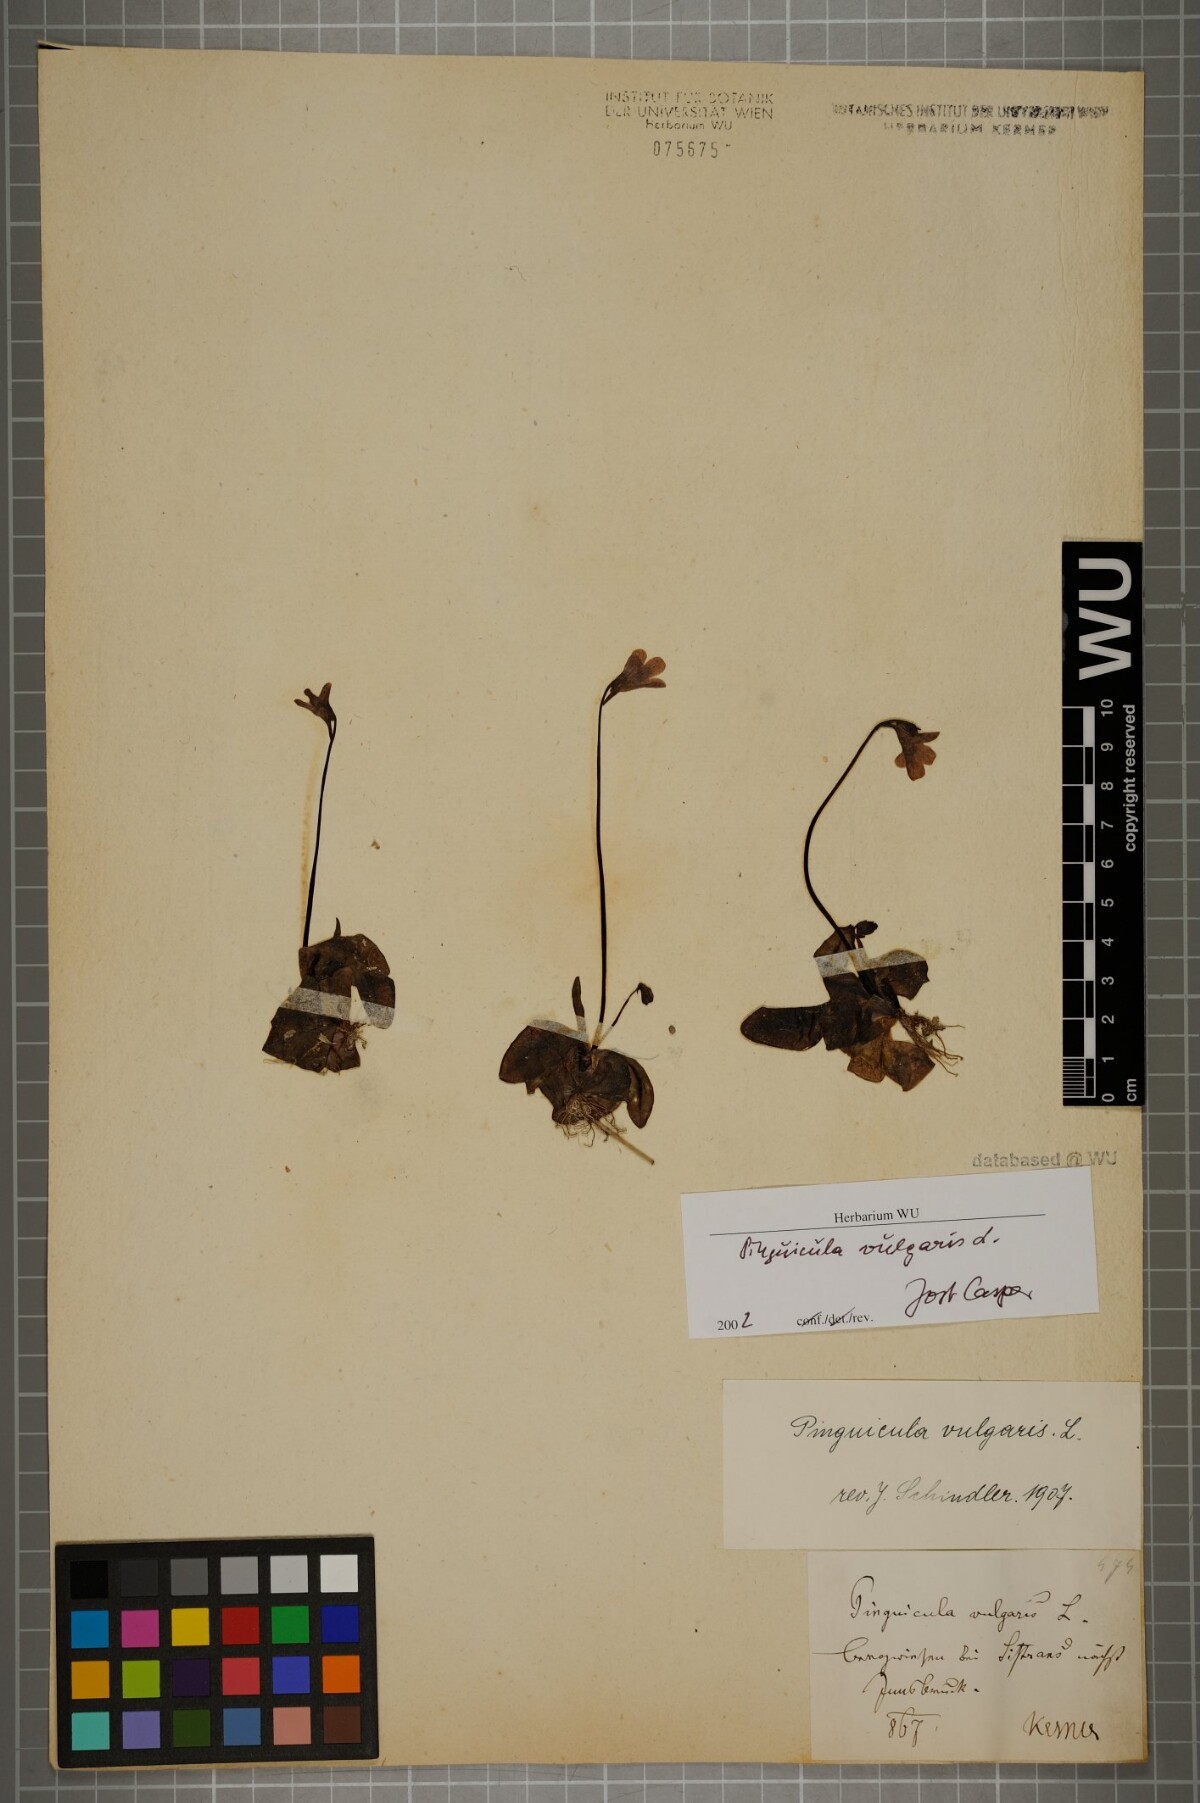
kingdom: Plantae
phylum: Tracheophyta
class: Magnoliopsida
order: Lamiales
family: Lentibulariaceae
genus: Pinguicula
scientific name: Pinguicula vulgaris
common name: Common butterwort
